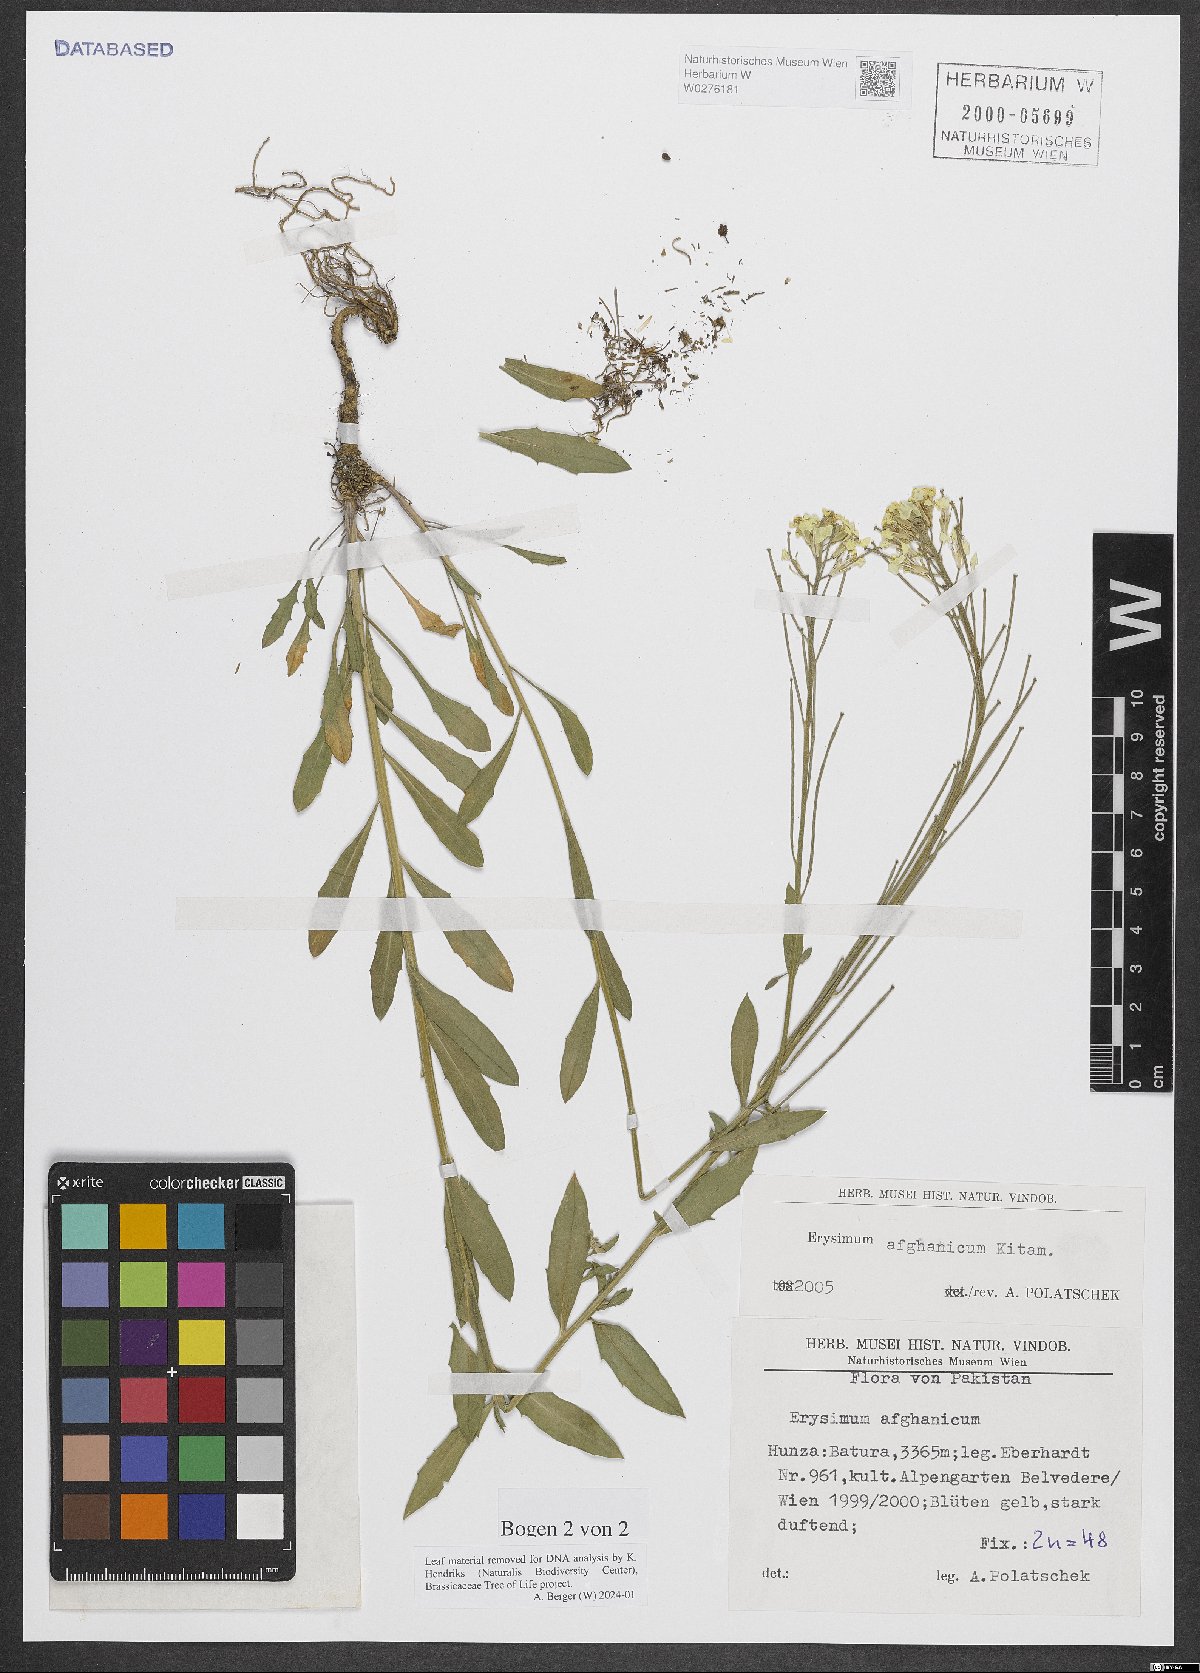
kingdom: Plantae
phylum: Tracheophyta
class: Magnoliopsida
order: Brassicales
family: Brassicaceae
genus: Erysimum
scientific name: Erysimum hieraciifolium
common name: European wallflower
